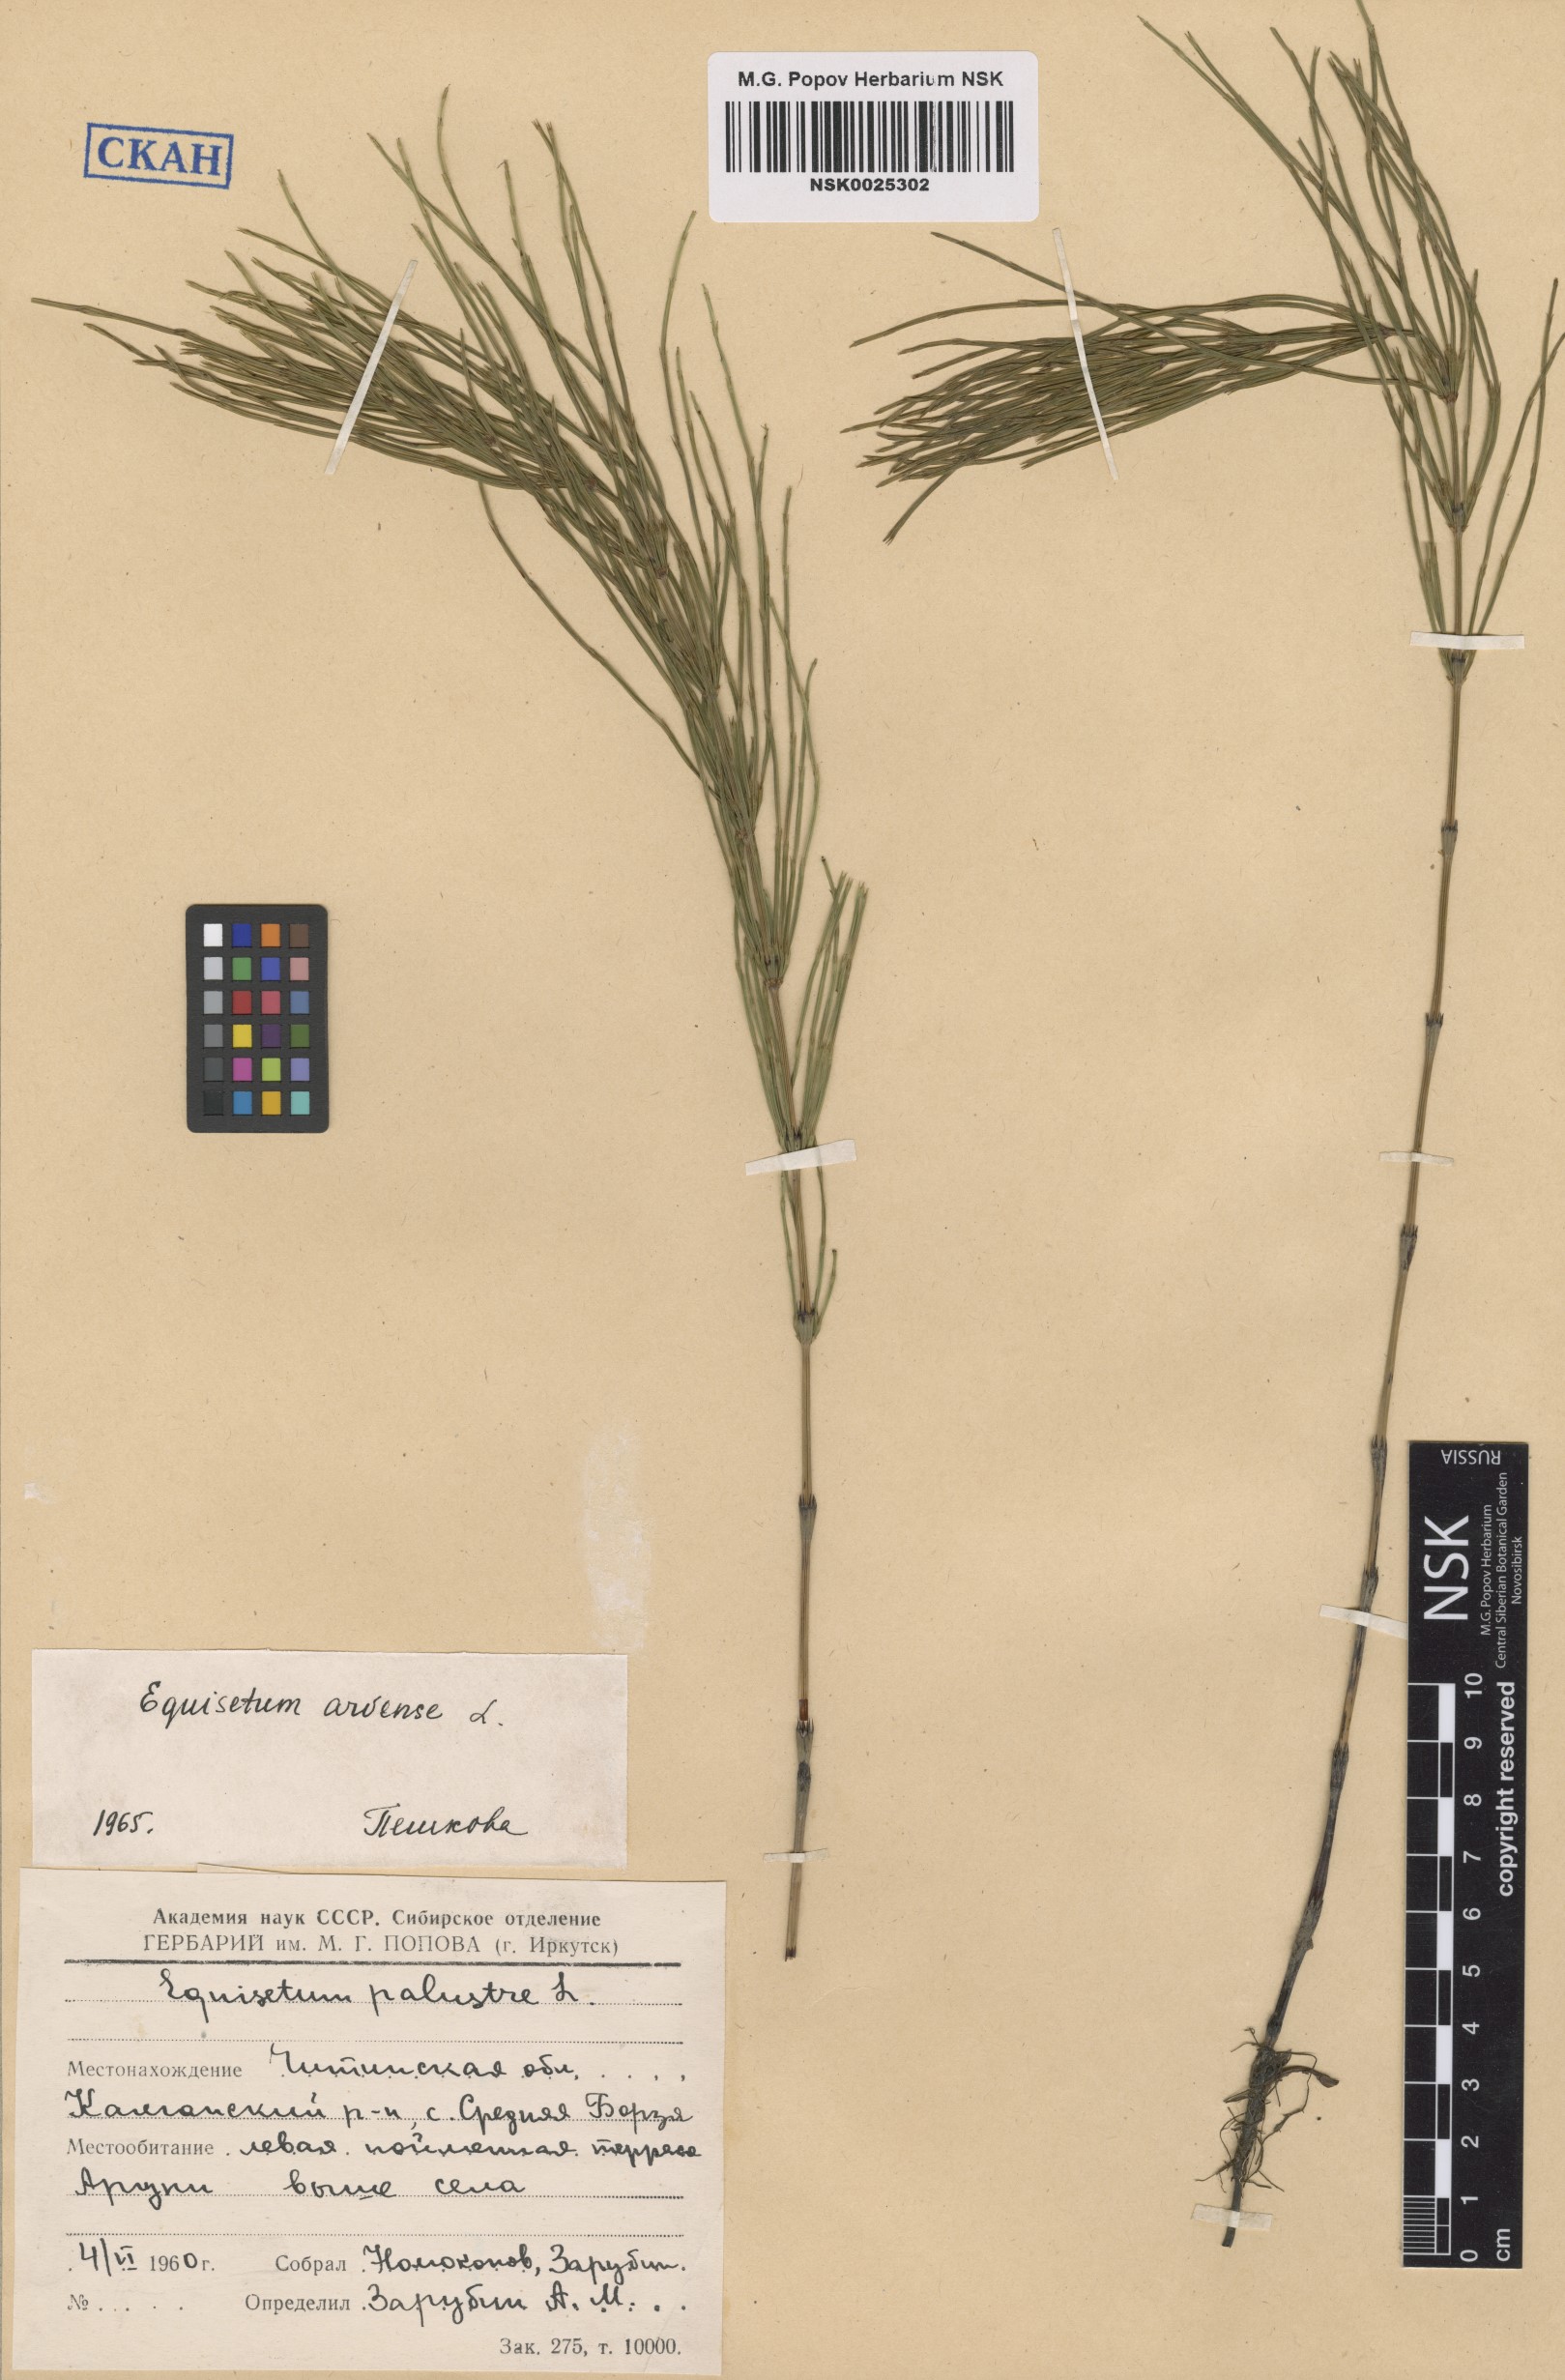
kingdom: Plantae
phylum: Tracheophyta
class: Polypodiopsida
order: Equisetales
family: Equisetaceae
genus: Equisetum
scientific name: Equisetum arvense
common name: Field horsetail
